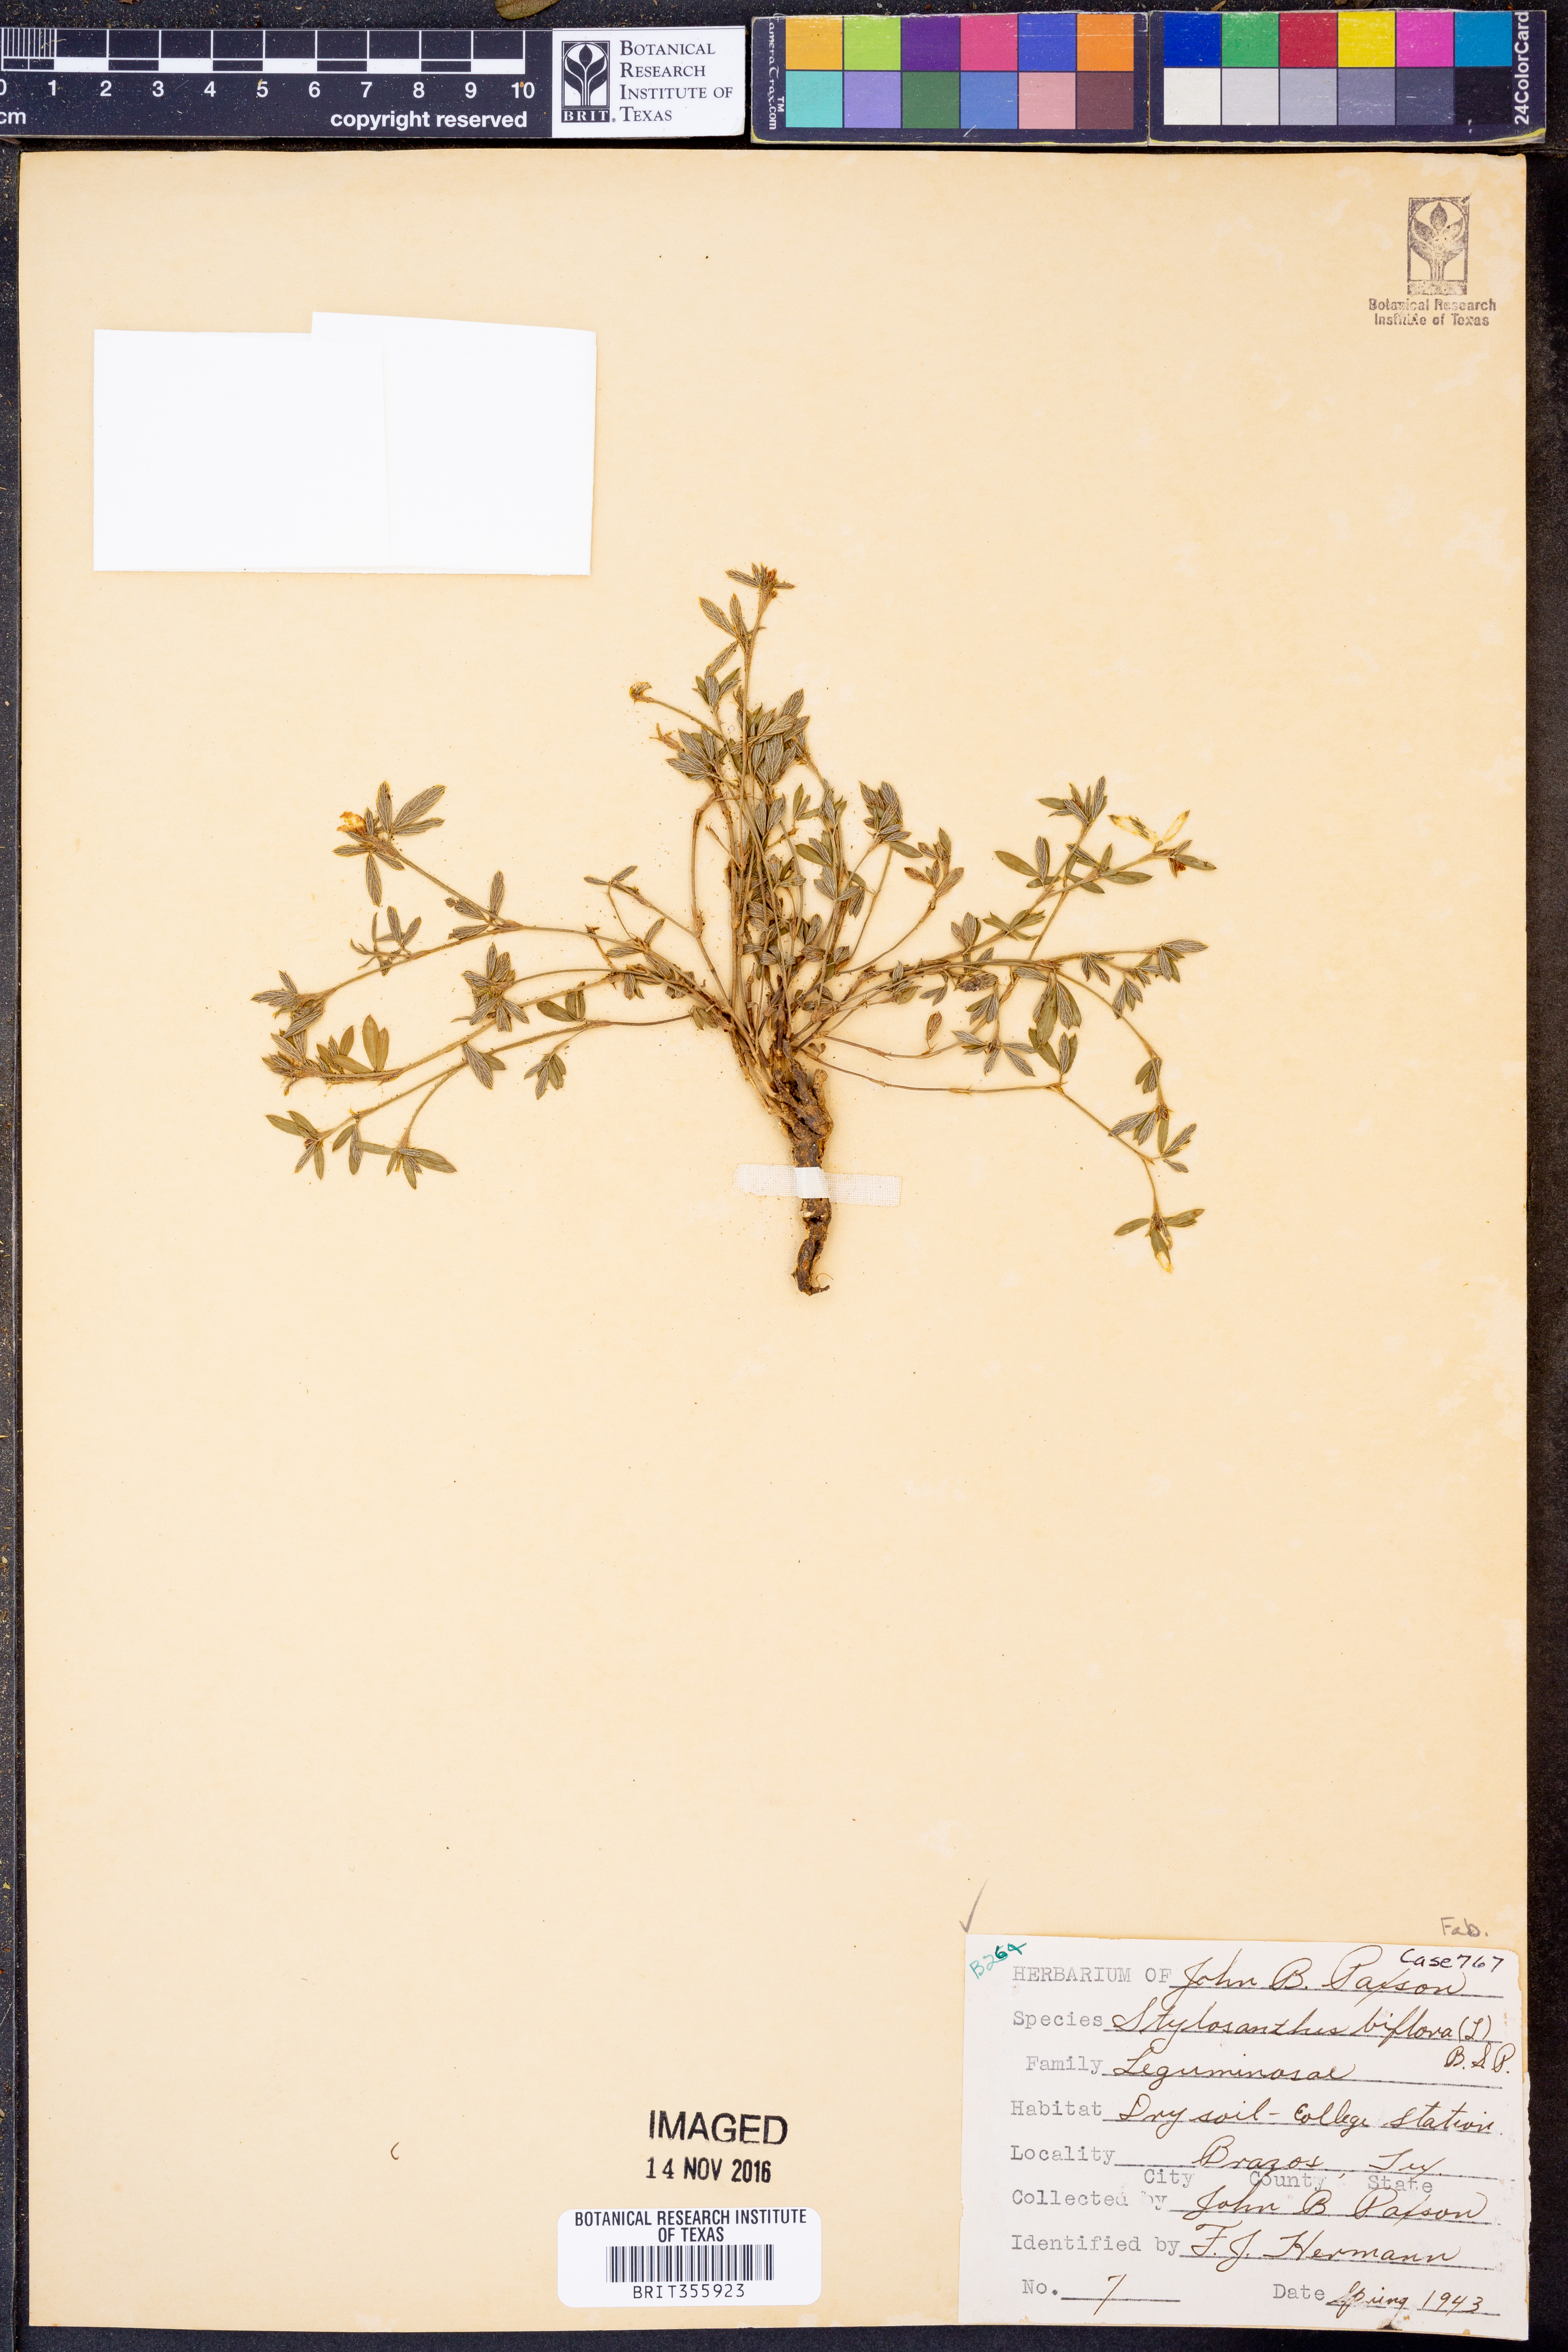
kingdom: Plantae
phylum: Tracheophyta
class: Magnoliopsida
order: Fabales
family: Fabaceae
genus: Stylosanthes
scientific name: Stylosanthes biflora
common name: Two-flower pencil-flower
